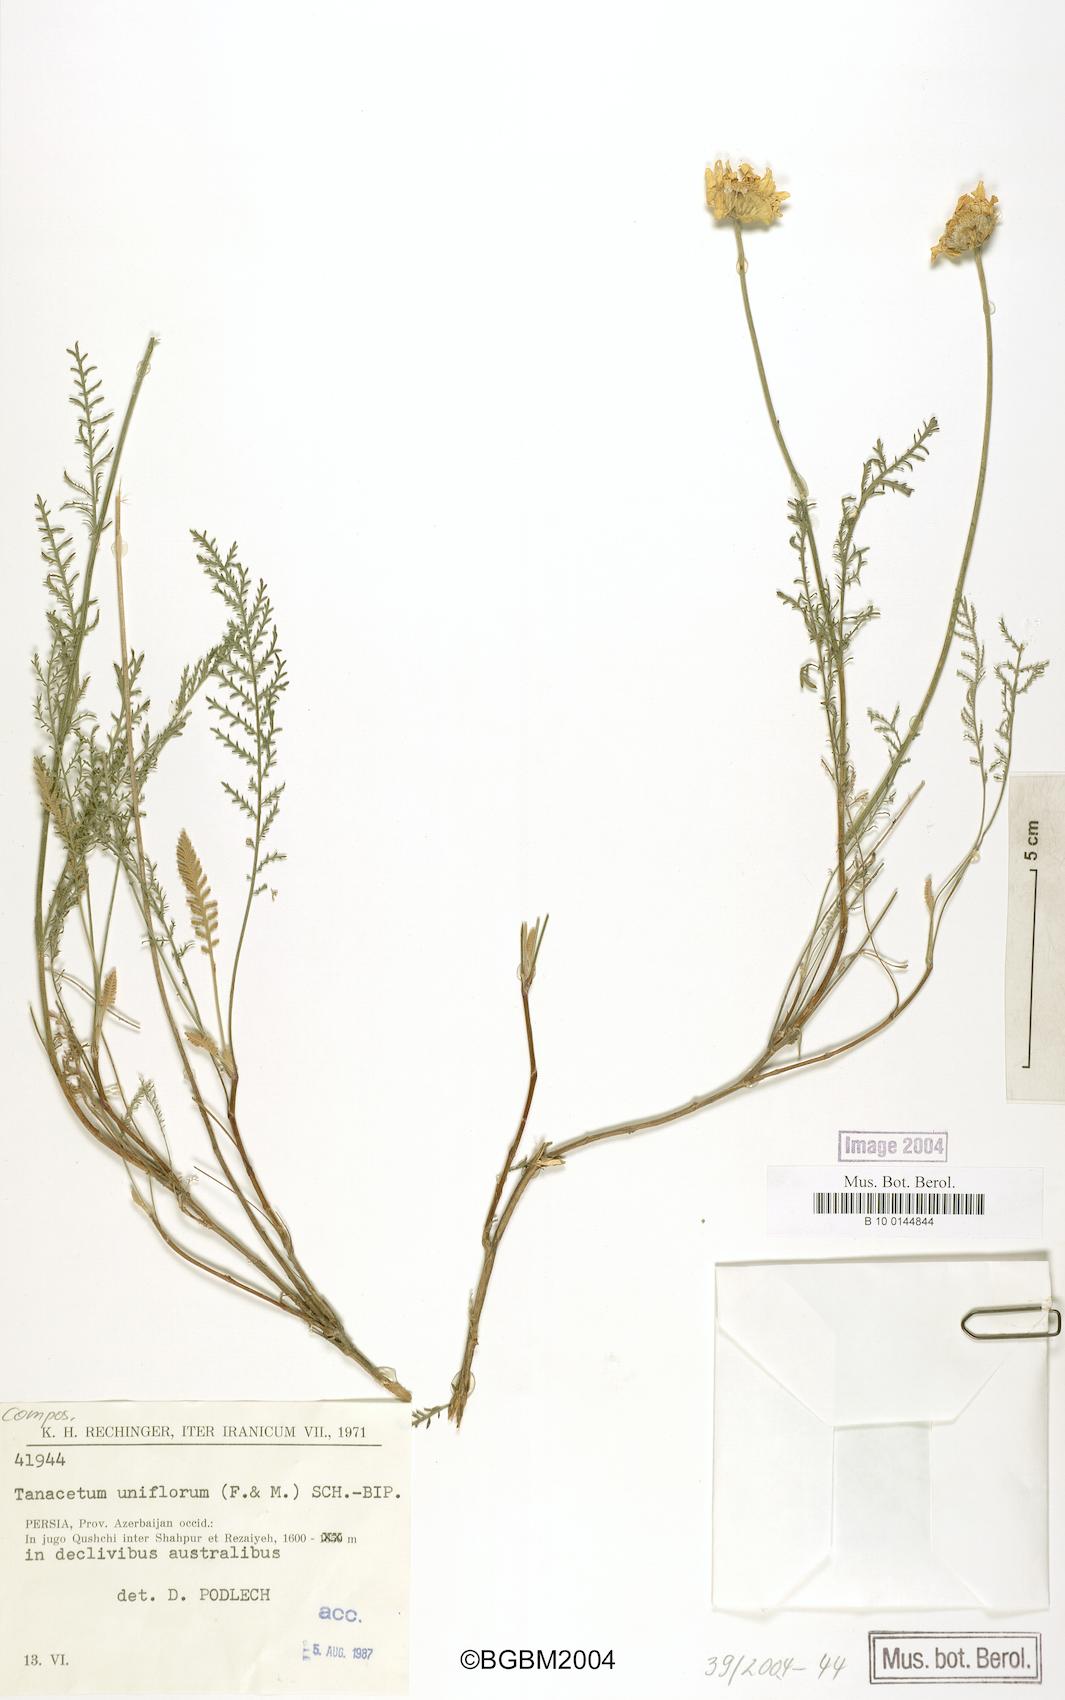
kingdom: Plantae
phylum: Tracheophyta
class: Magnoliopsida
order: Asterales
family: Asteraceae
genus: Tanacetum
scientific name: Tanacetum uniflorum
